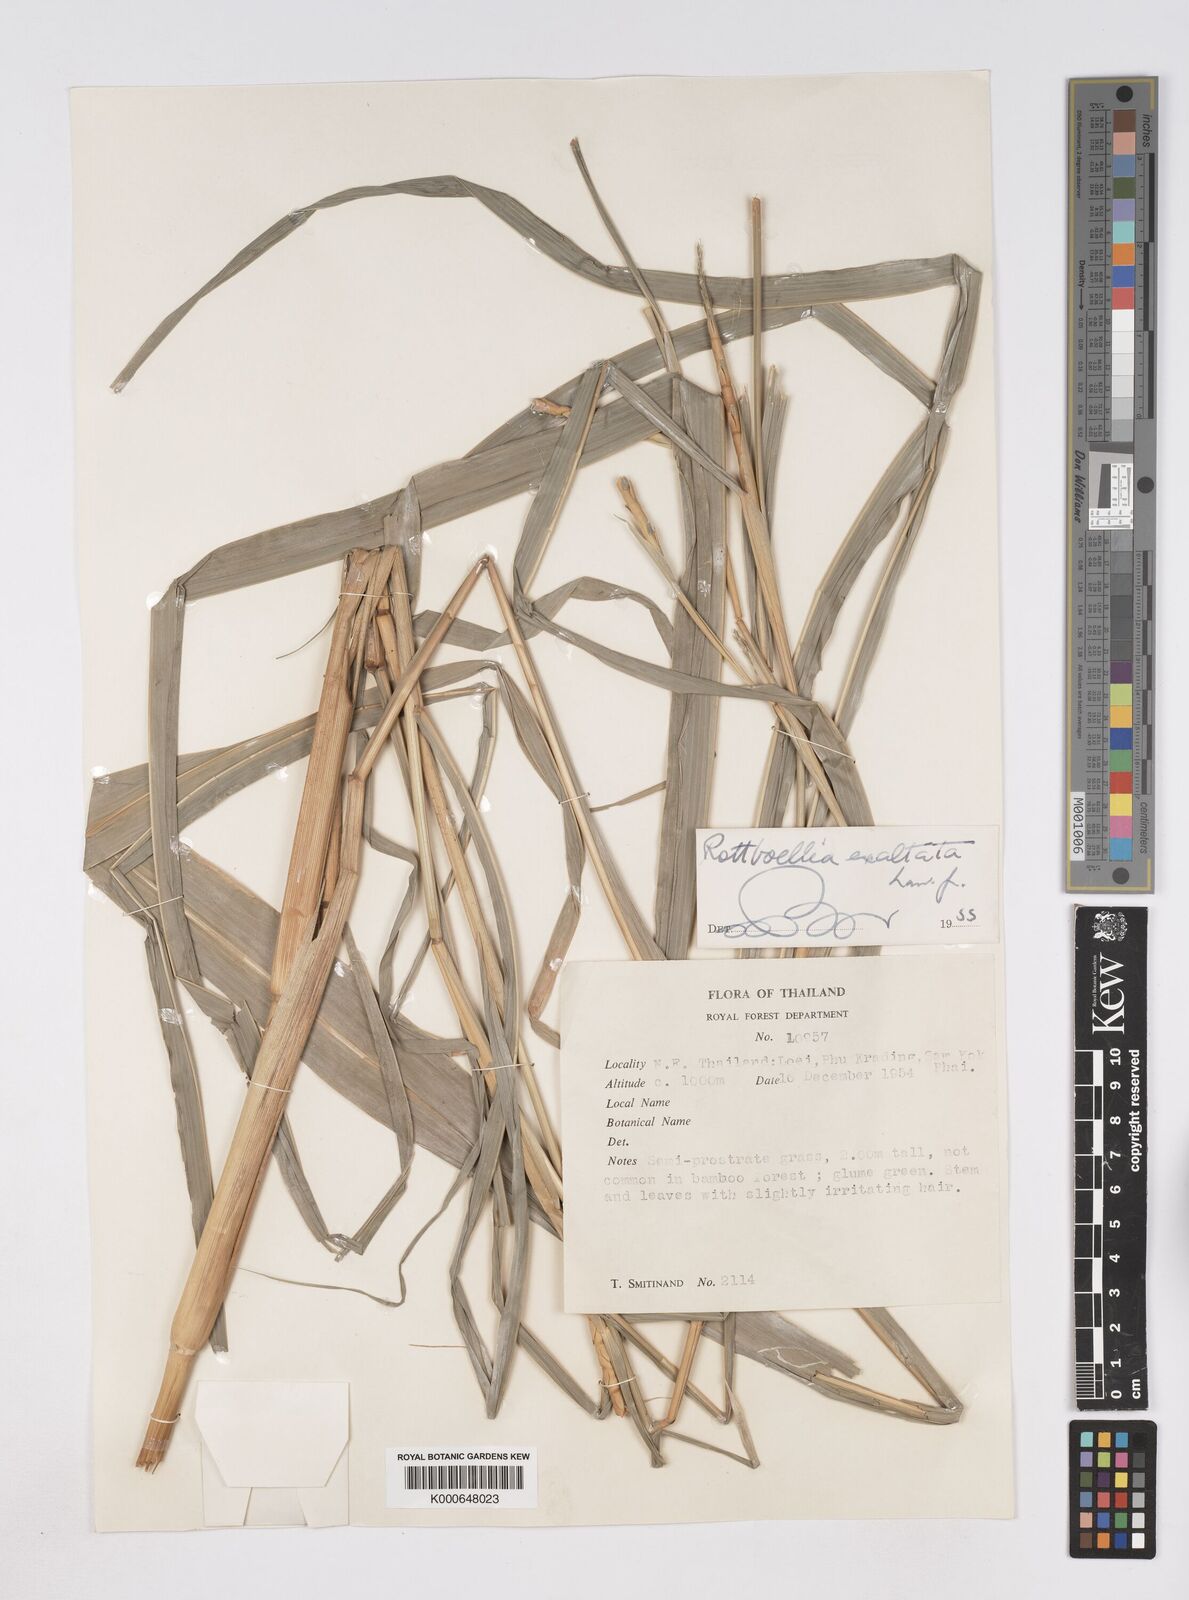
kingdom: Plantae
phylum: Tracheophyta
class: Liliopsida
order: Poales
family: Poaceae
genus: Rottboellia
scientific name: Rottboellia cochinchinensis
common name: Itchgrass
